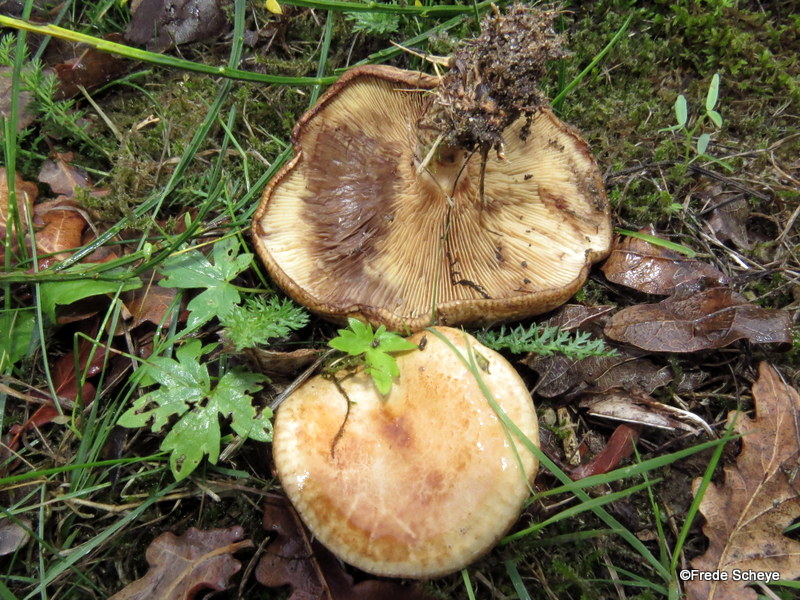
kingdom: Fungi
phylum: Basidiomycota
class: Agaricomycetes
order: Boletales
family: Paxillaceae
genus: Paxillus
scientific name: Paxillus involutus
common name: almindelig netbladhat
